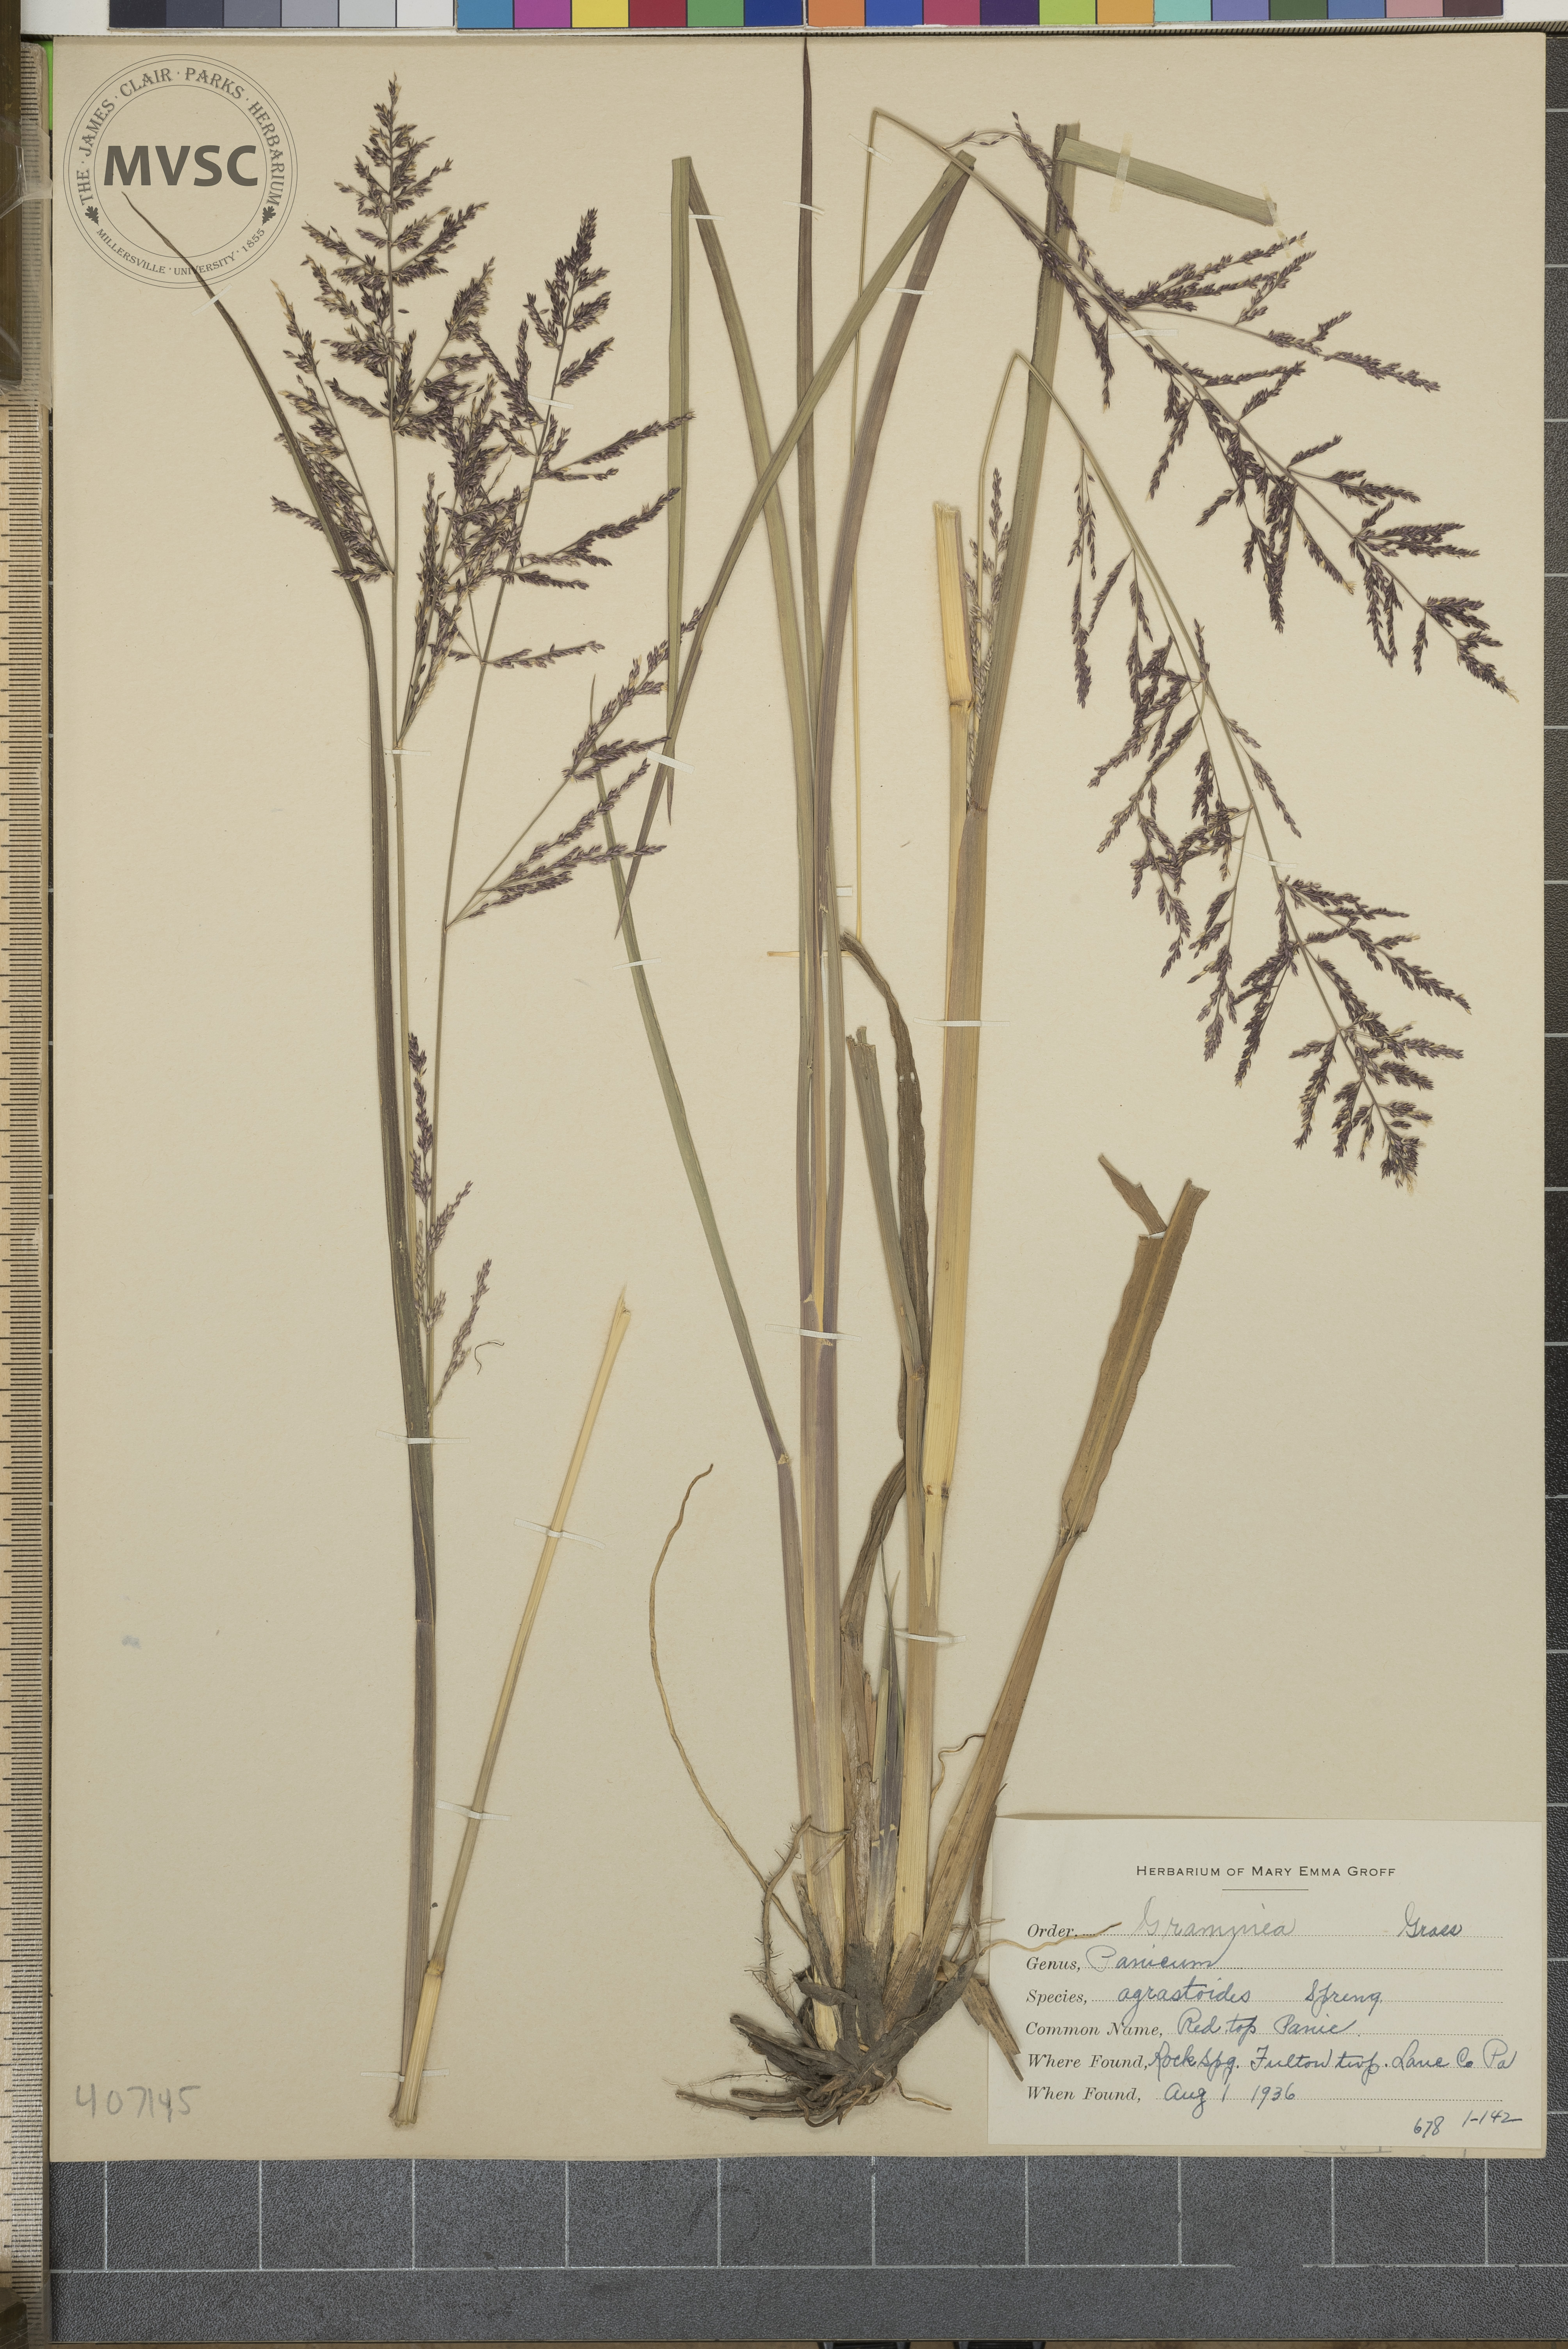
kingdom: Plantae
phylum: Tracheophyta
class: Liliopsida
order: Poales
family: Poaceae
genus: Panicum
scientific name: Panicum agrostoides
